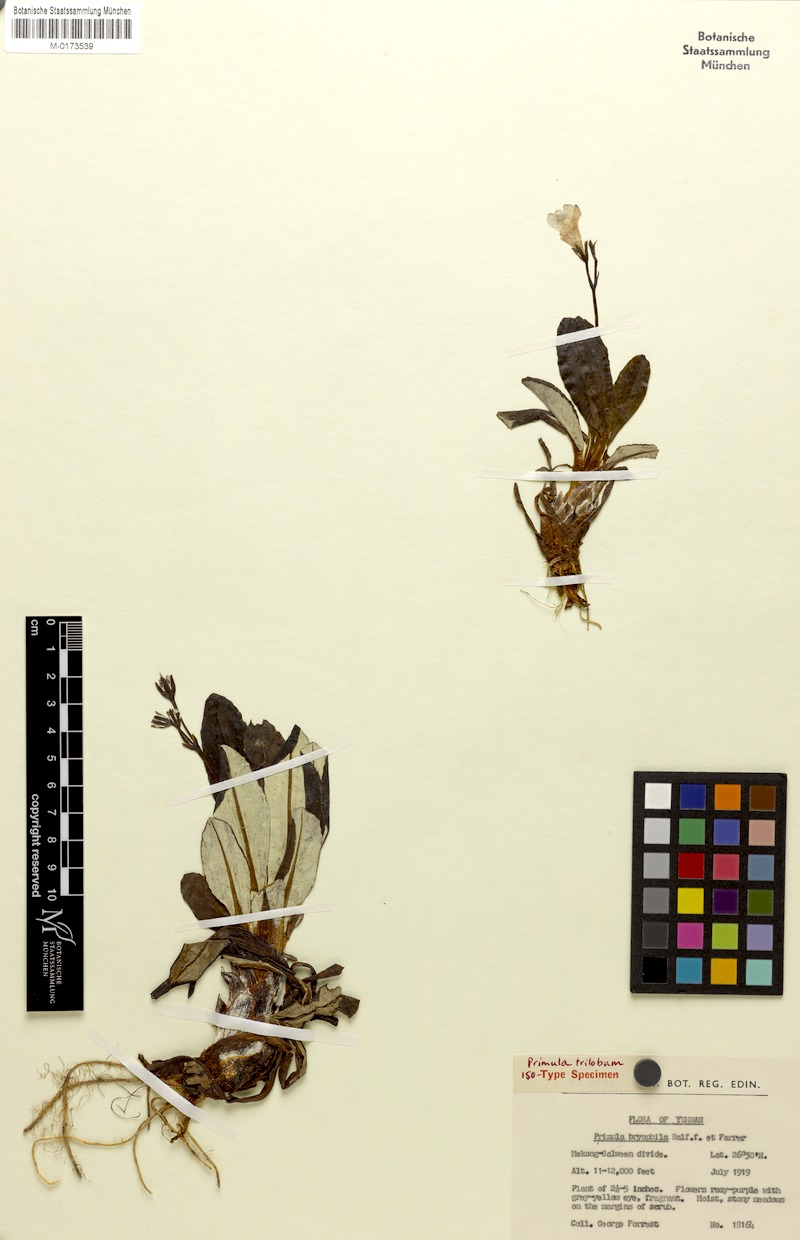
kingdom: Plantae
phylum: Tracheophyta
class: Magnoliopsida
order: Ericales
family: Primulaceae
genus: Primula
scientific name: Primula calliantha
